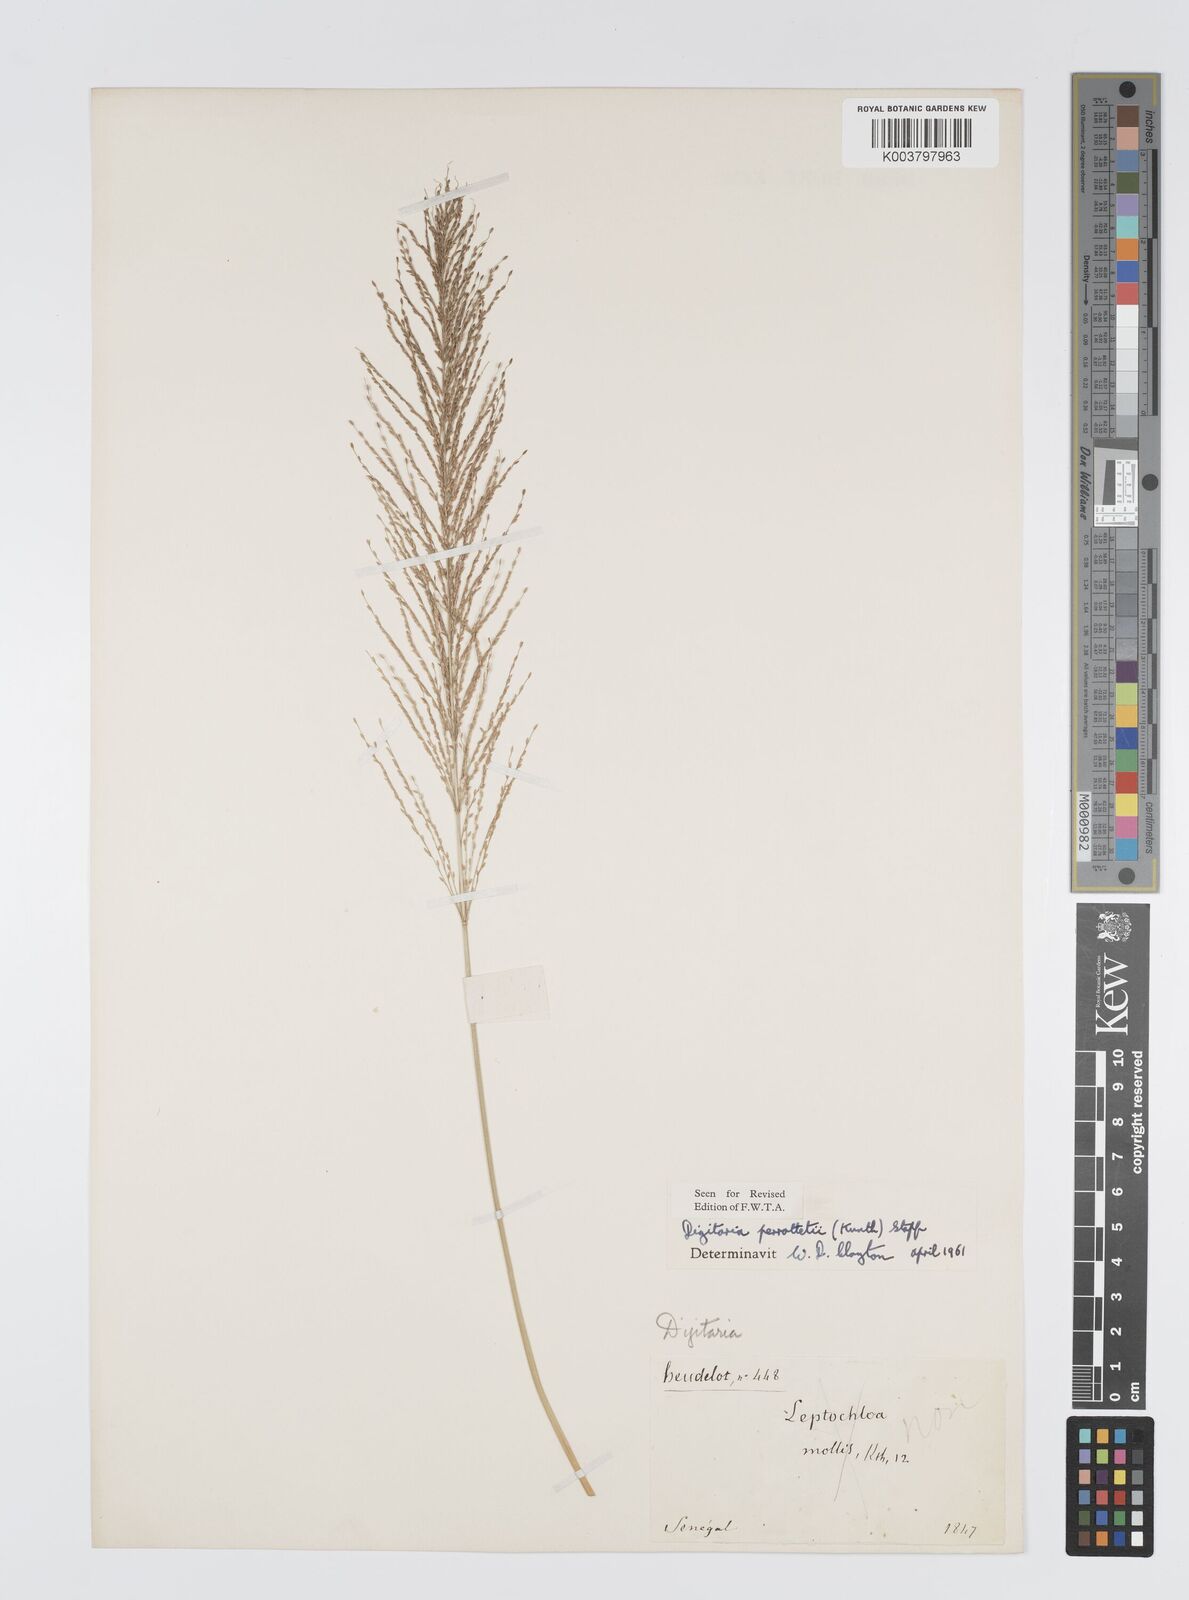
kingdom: Plantae
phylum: Tracheophyta
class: Liliopsida
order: Poales
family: Poaceae
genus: Digitaria
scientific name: Digitaria perrottetii
